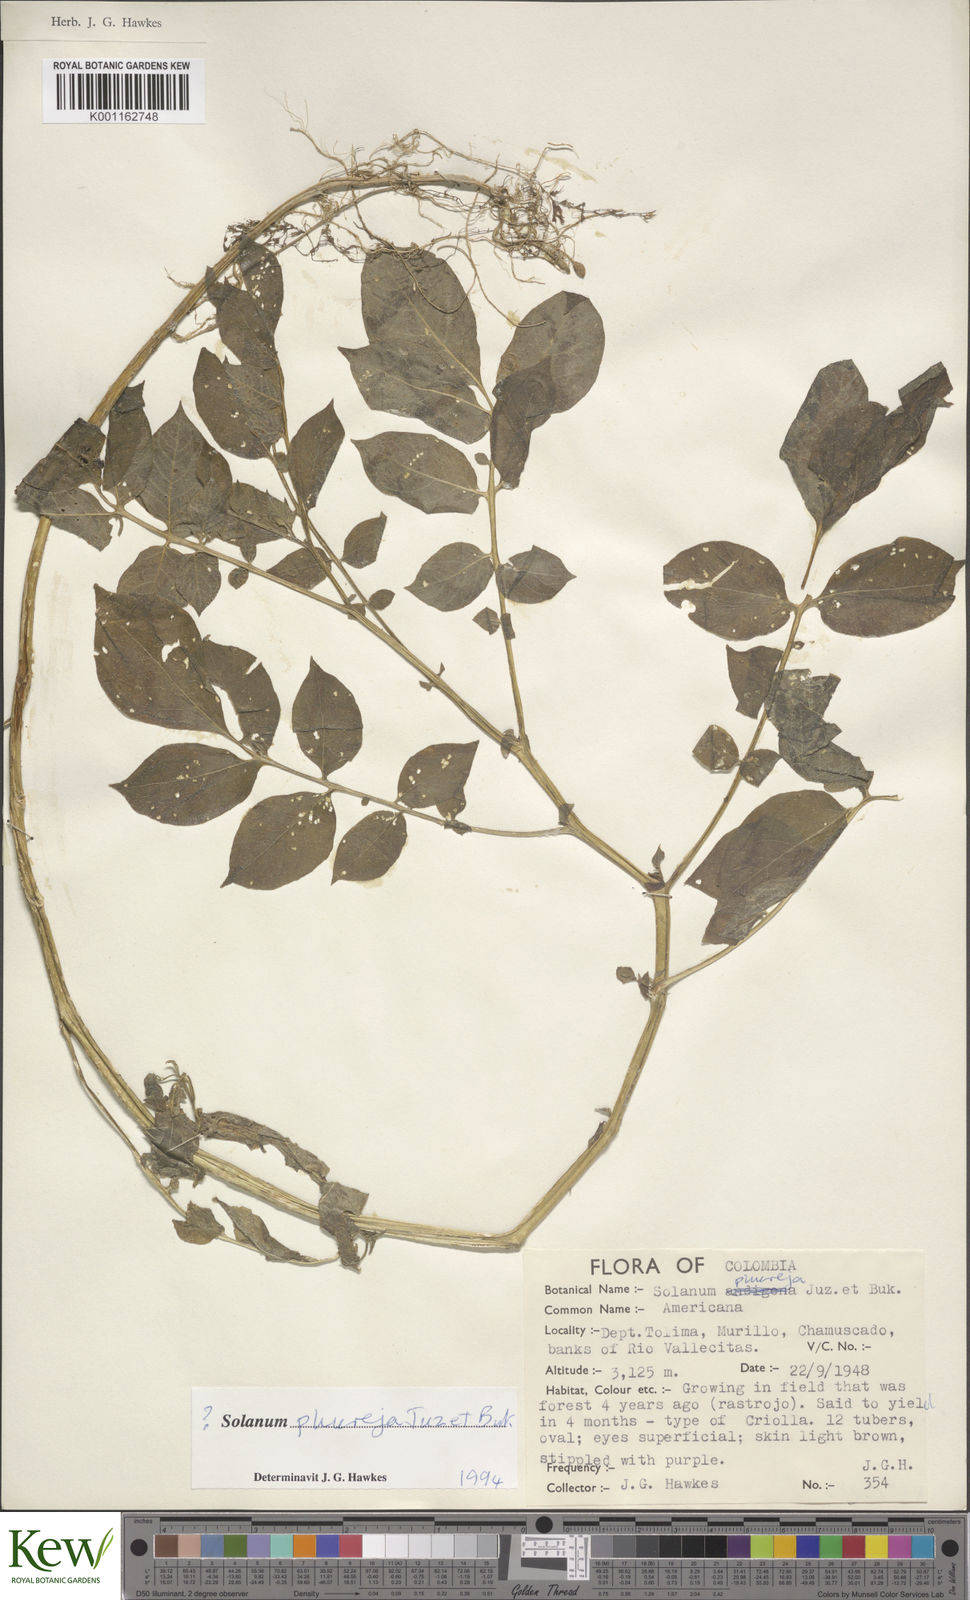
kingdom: Plantae
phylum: Tracheophyta
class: Magnoliopsida
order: Solanales
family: Solanaceae
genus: Solanum
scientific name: Solanum tuberosum
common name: Potato
